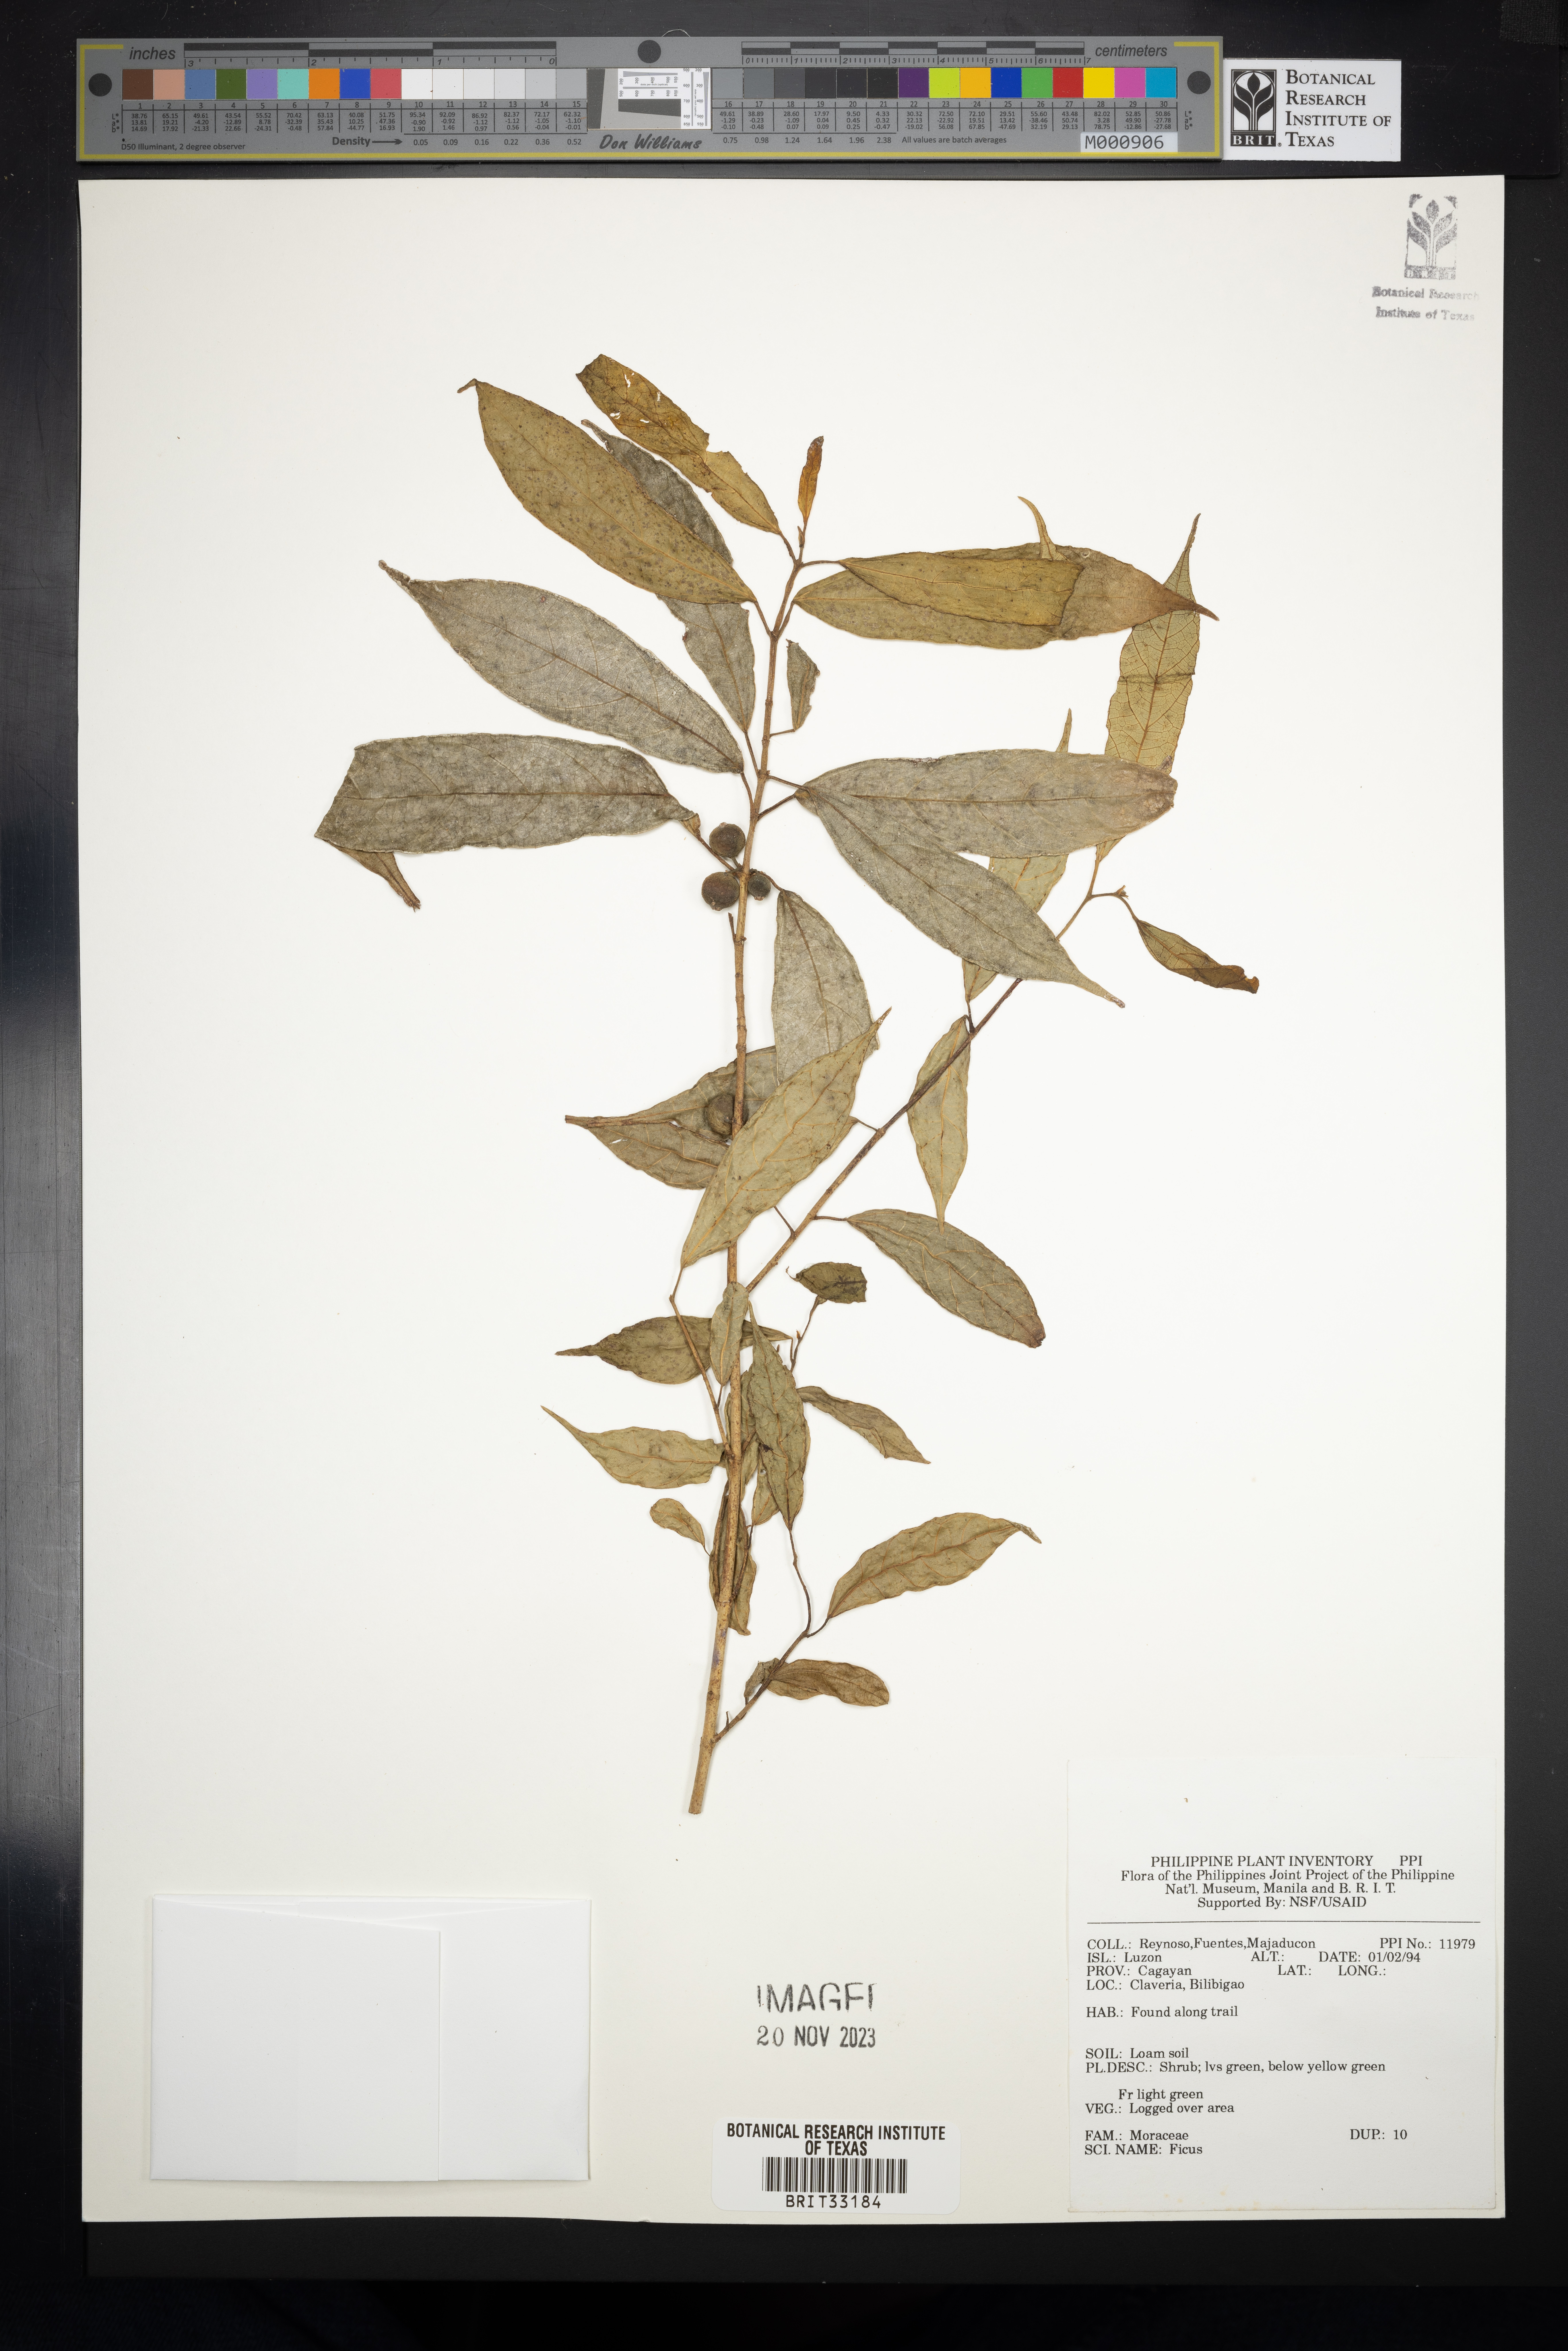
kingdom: Plantae
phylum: Tracheophyta
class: Magnoliopsida
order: Rosales
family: Moraceae
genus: Ficus
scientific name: Ficus
